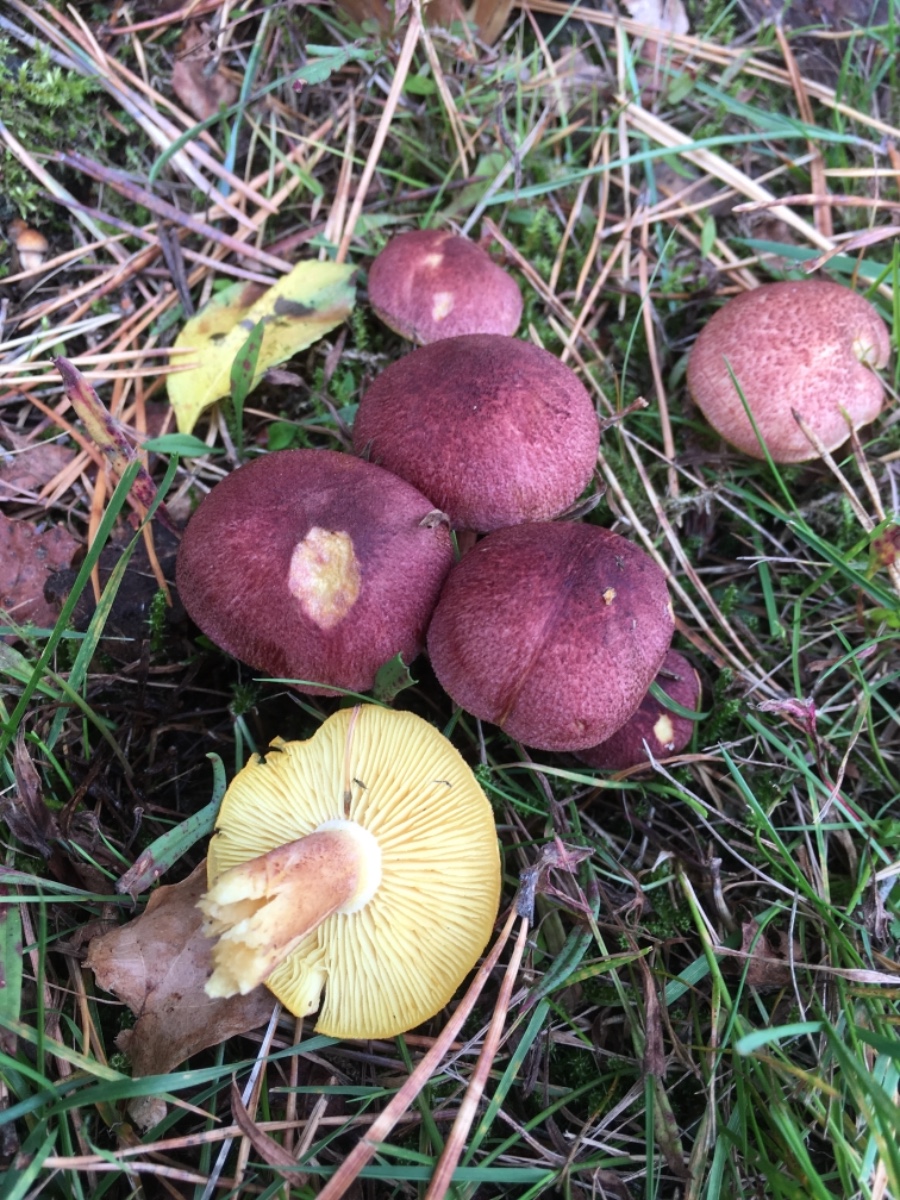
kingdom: Fungi
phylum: Basidiomycota
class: Agaricomycetes
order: Agaricales
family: Tricholomataceae
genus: Tricholomopsis
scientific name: Tricholomopsis rutilans
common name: purpur-væbnerhat
